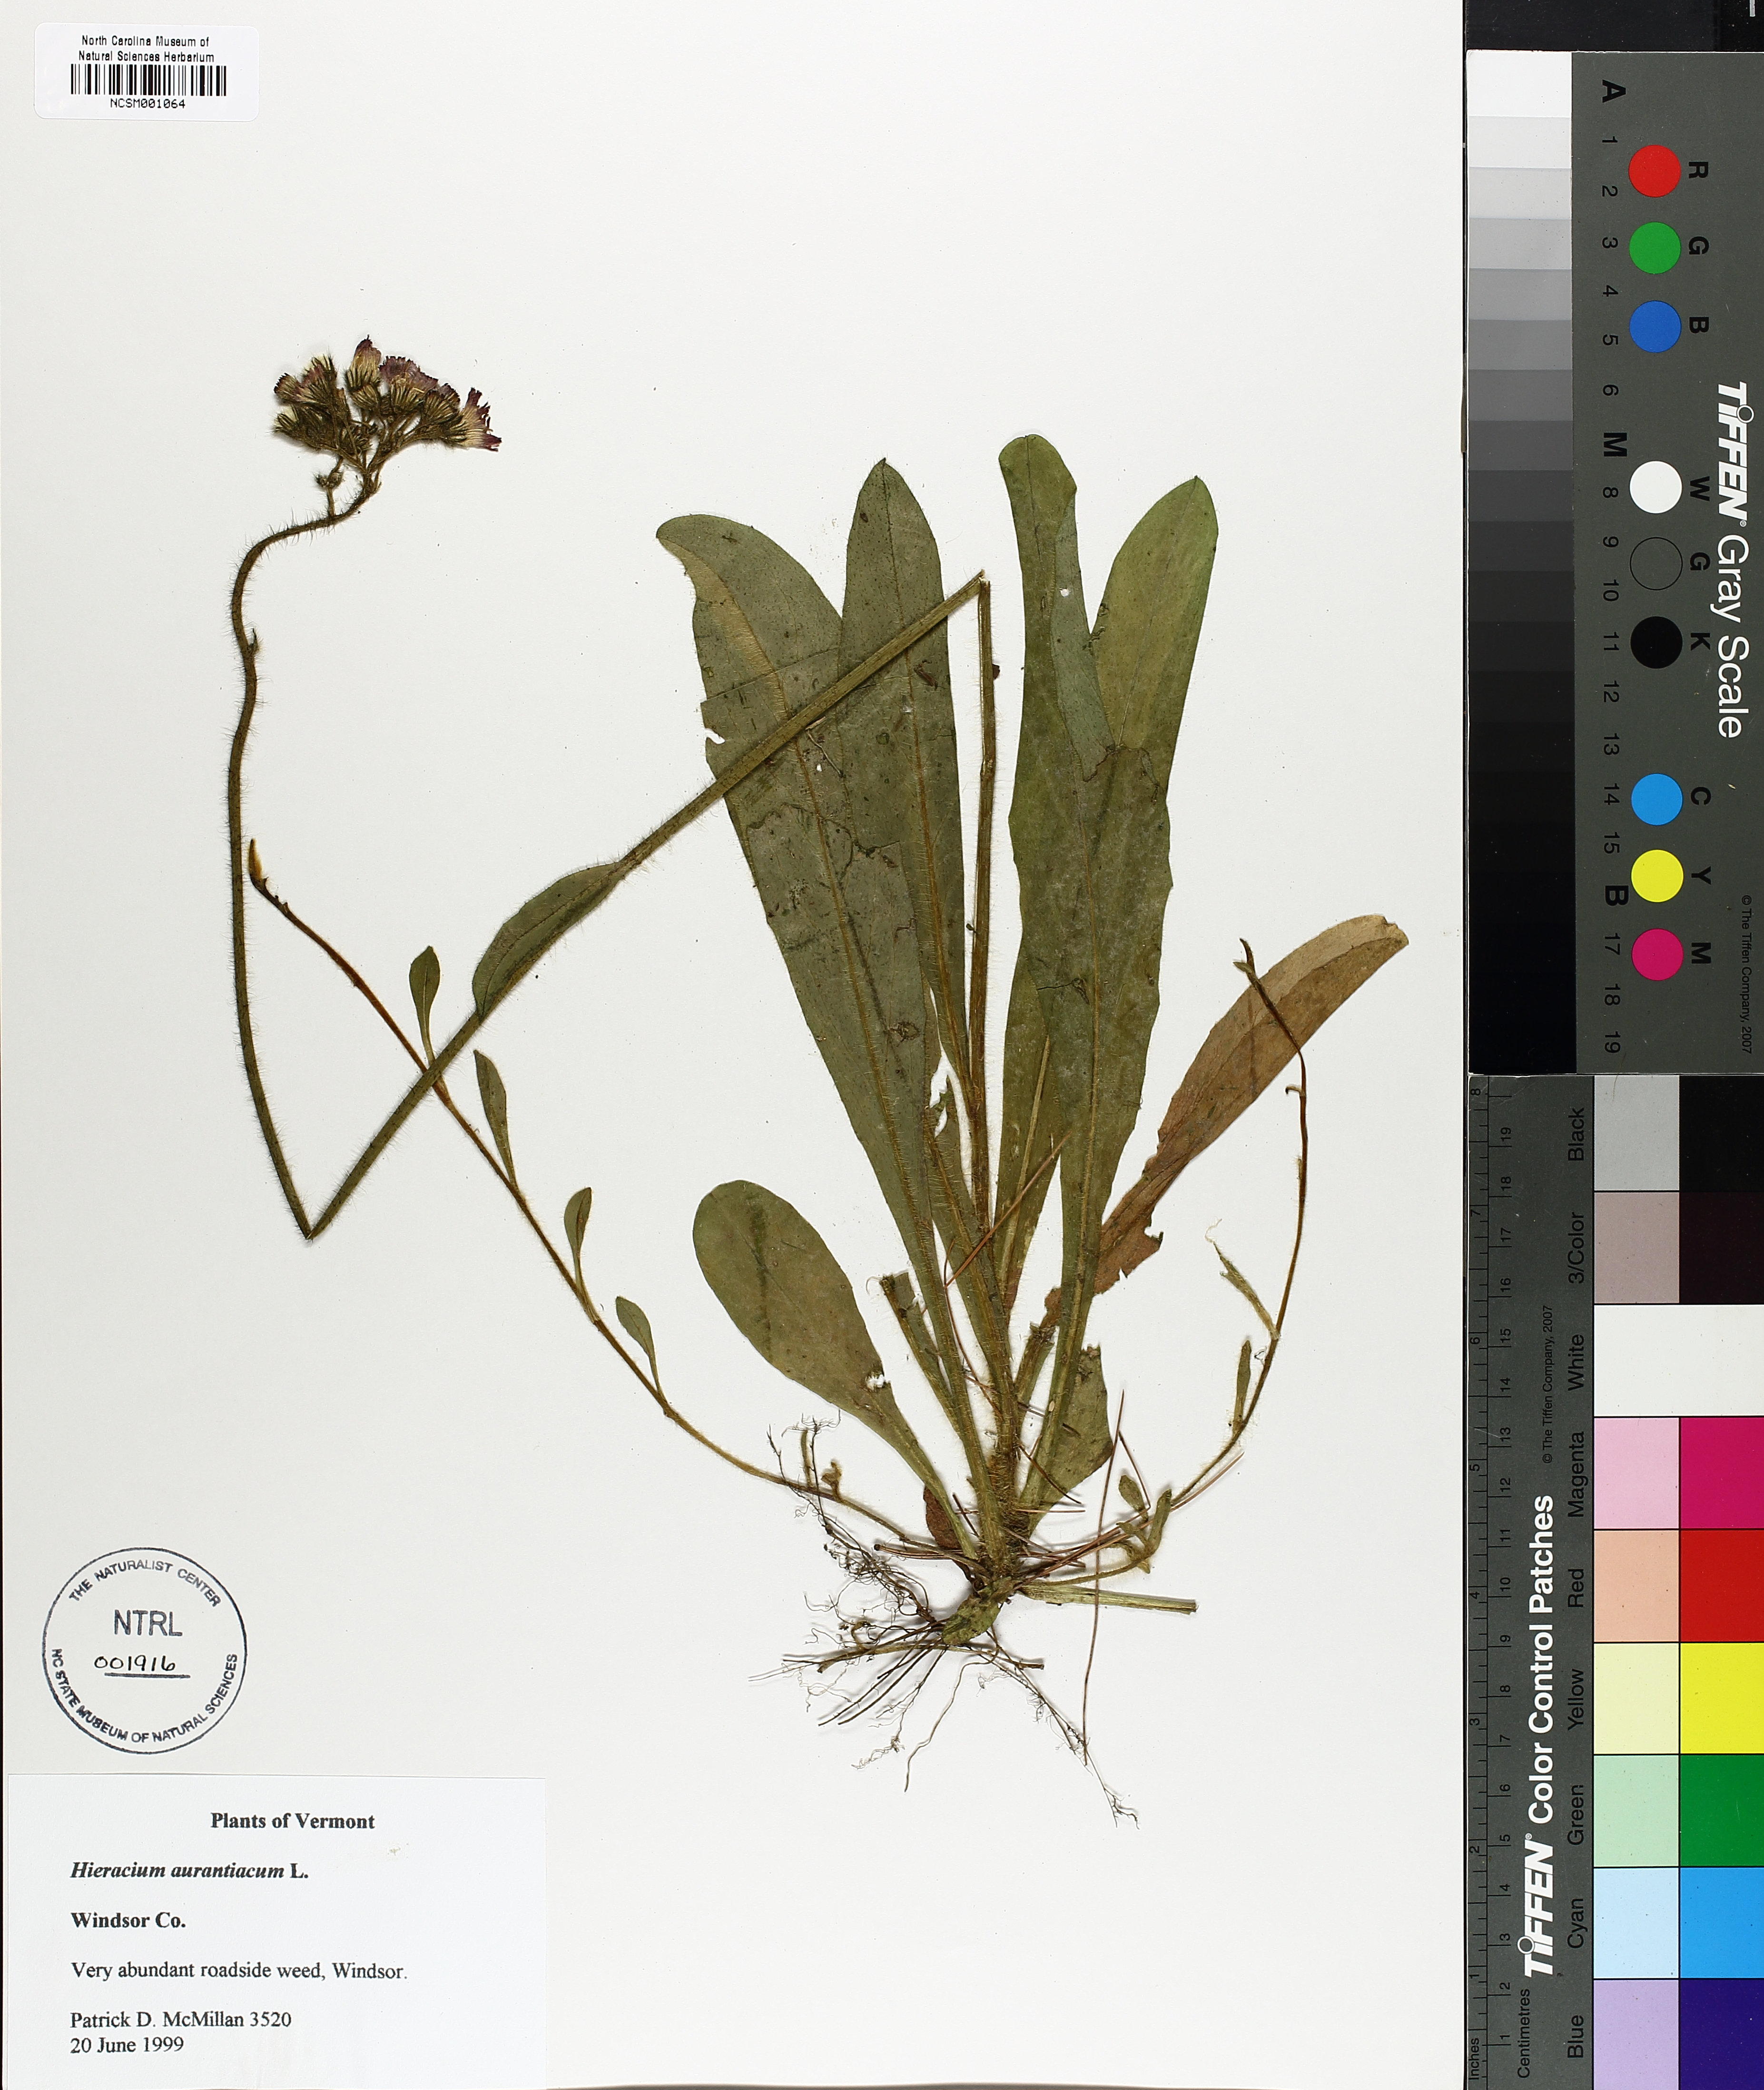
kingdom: Plantae
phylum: Tracheophyta
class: Magnoliopsida
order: Asterales
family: Asteraceae
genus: Pilosella
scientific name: Pilosella aurantiaca
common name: Fox-and-cubs
